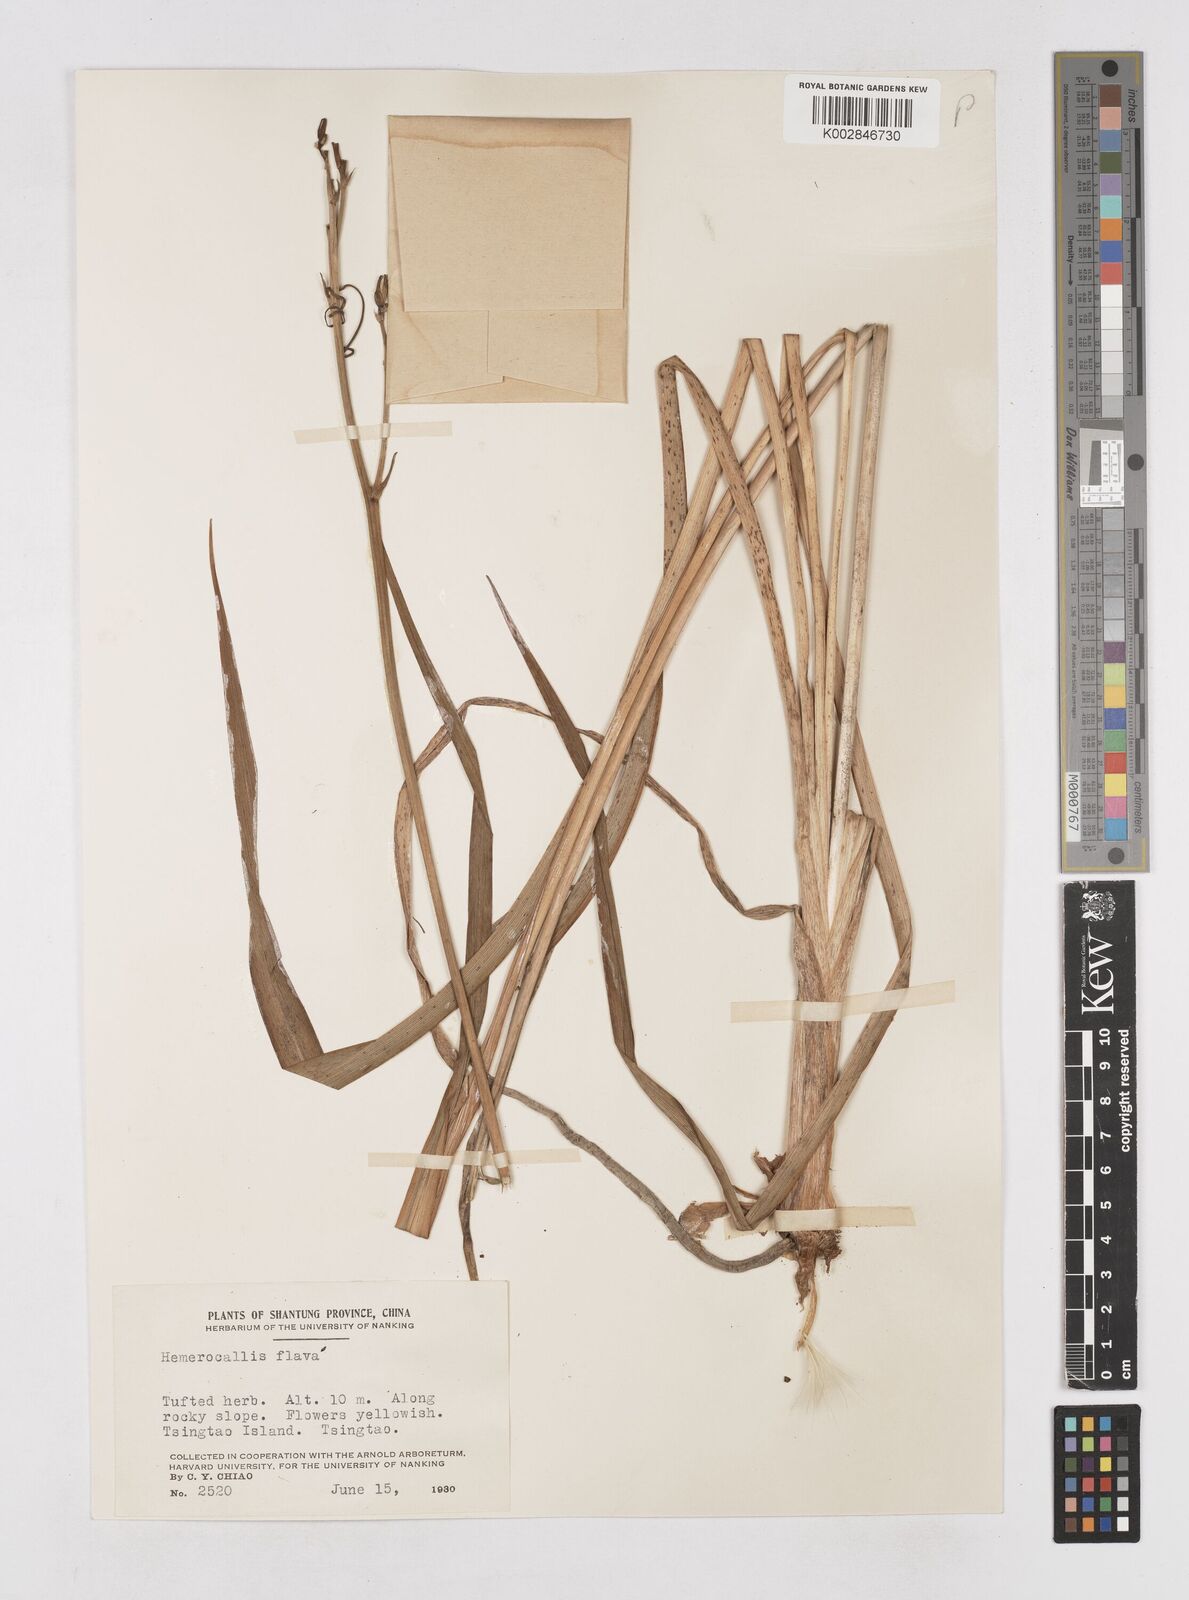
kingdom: Plantae
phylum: Tracheophyta
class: Liliopsida
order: Asparagales
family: Asphodelaceae
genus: Hemerocallis
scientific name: Hemerocallis
